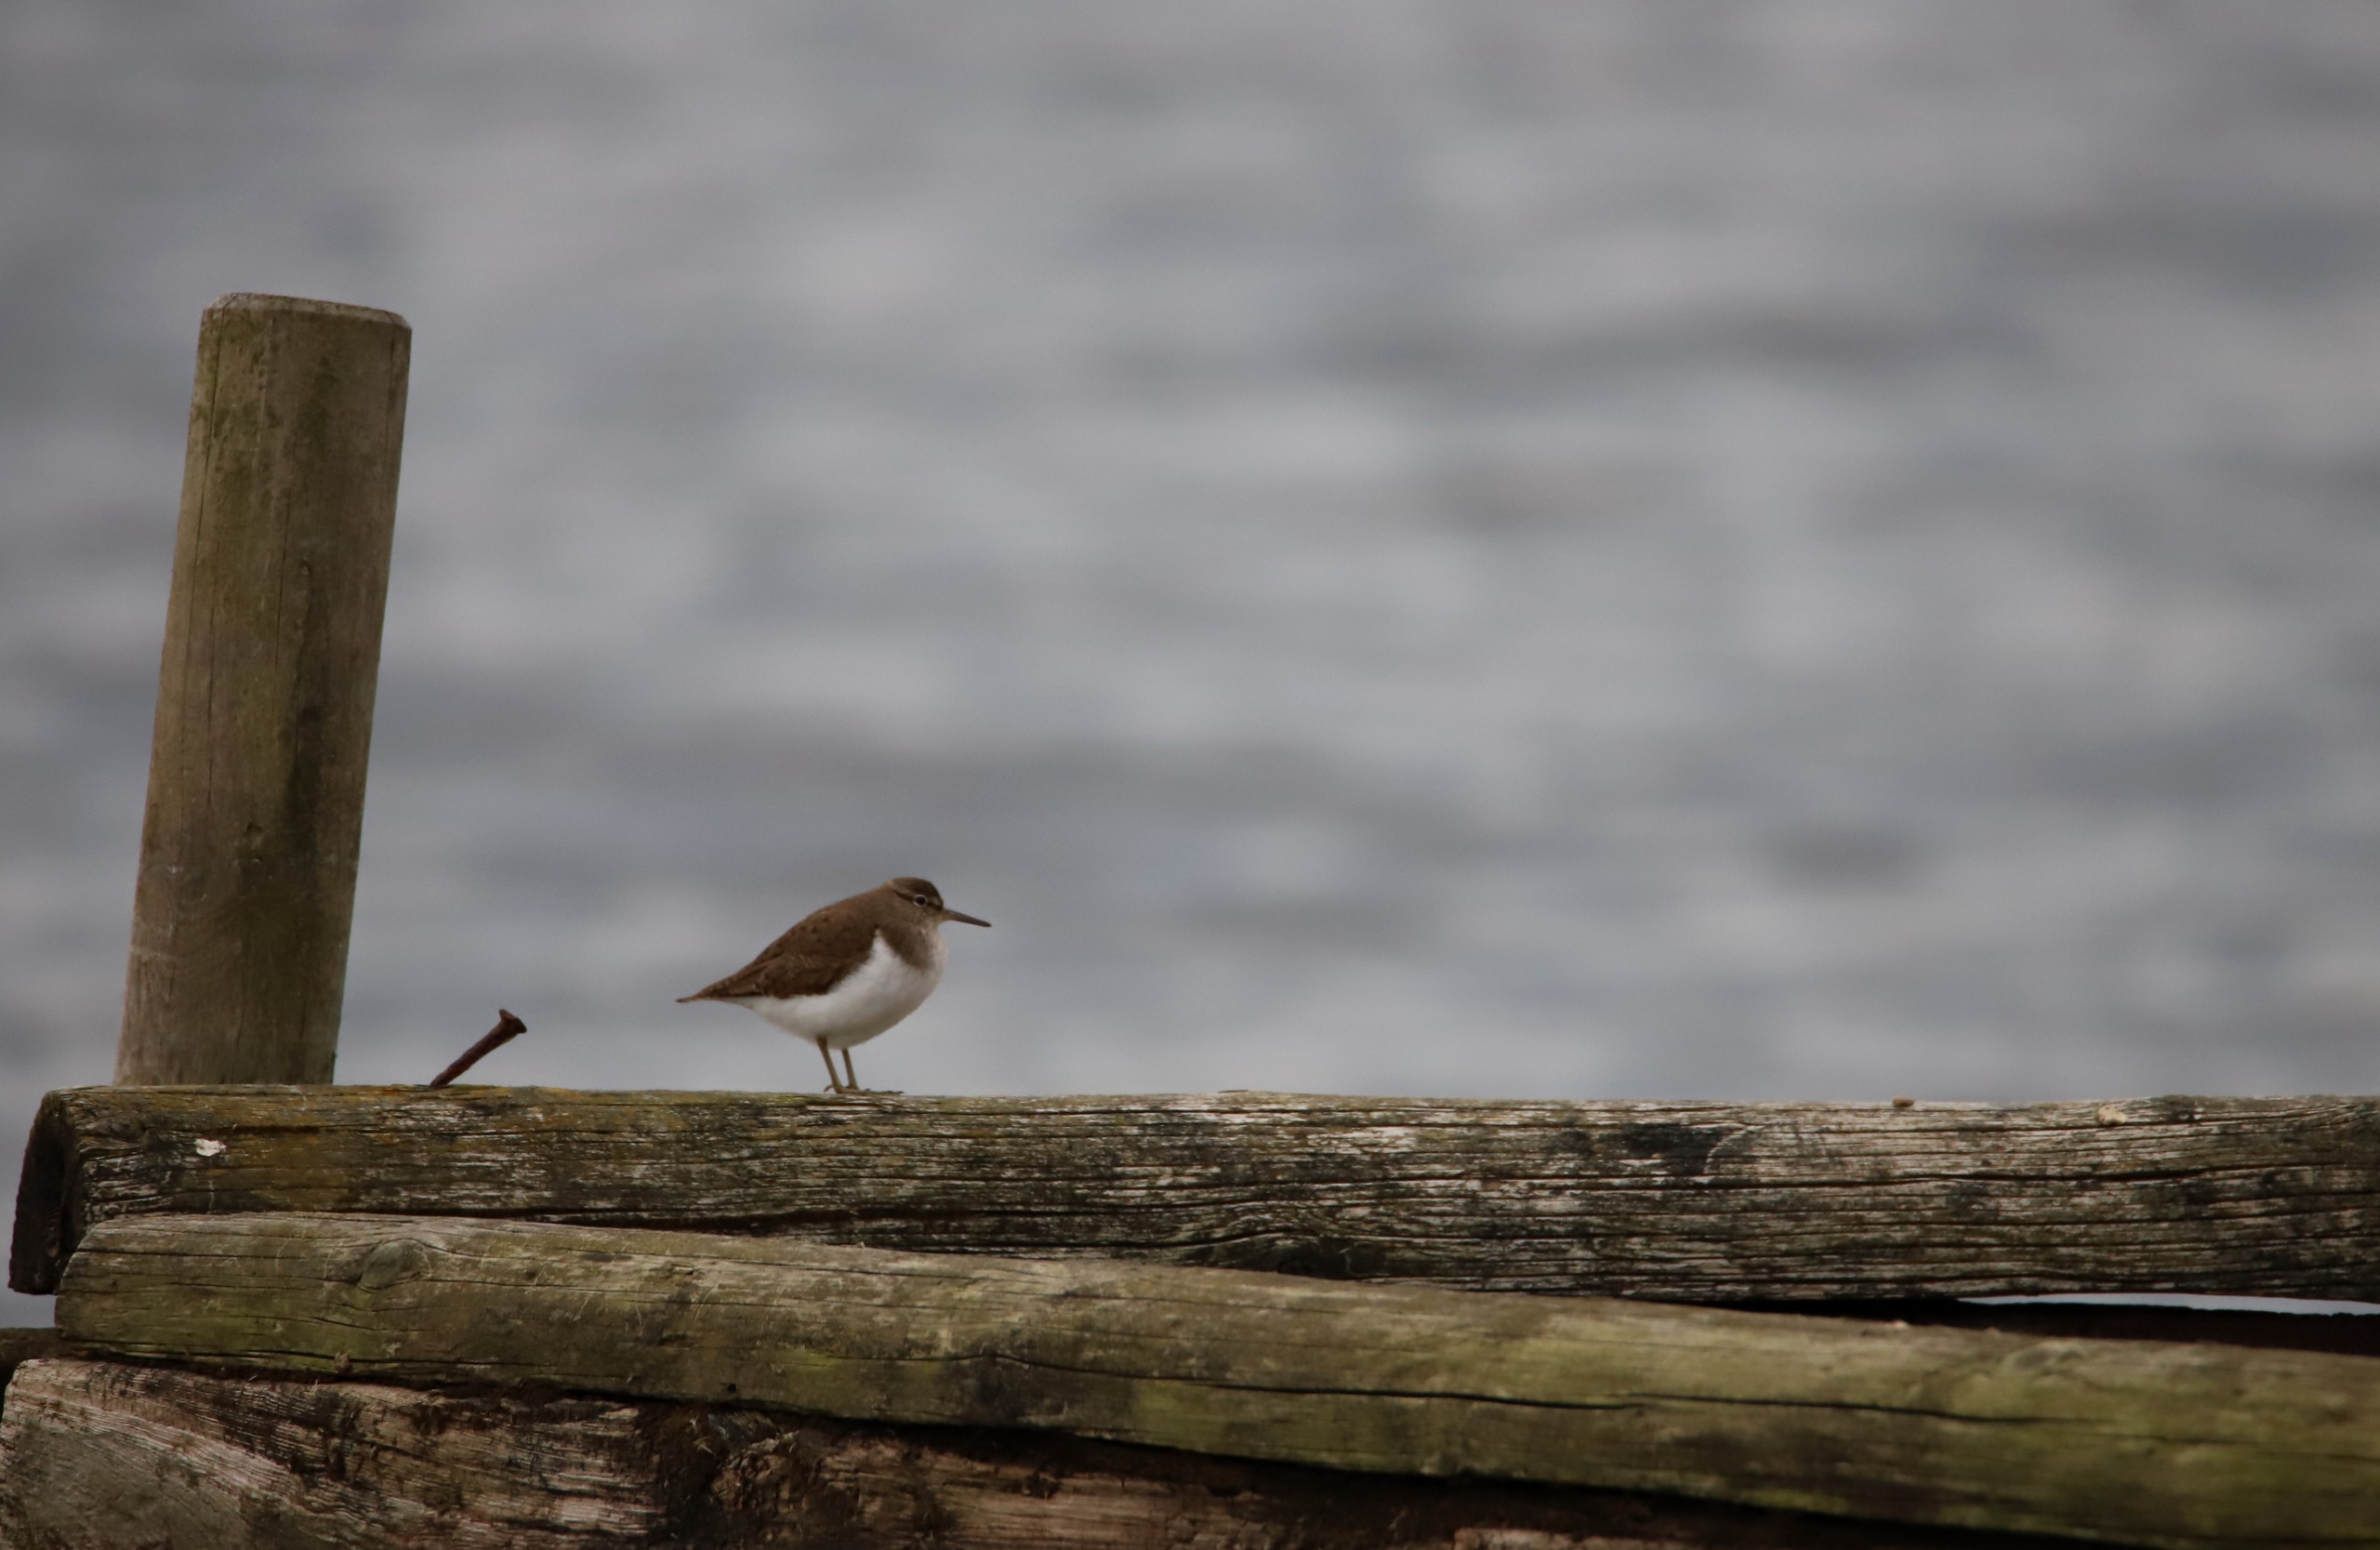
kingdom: Animalia
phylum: Chordata
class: Aves
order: Charadriiformes
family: Scolopacidae
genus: Actitis
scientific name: Actitis hypoleucos
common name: Mudderklire
